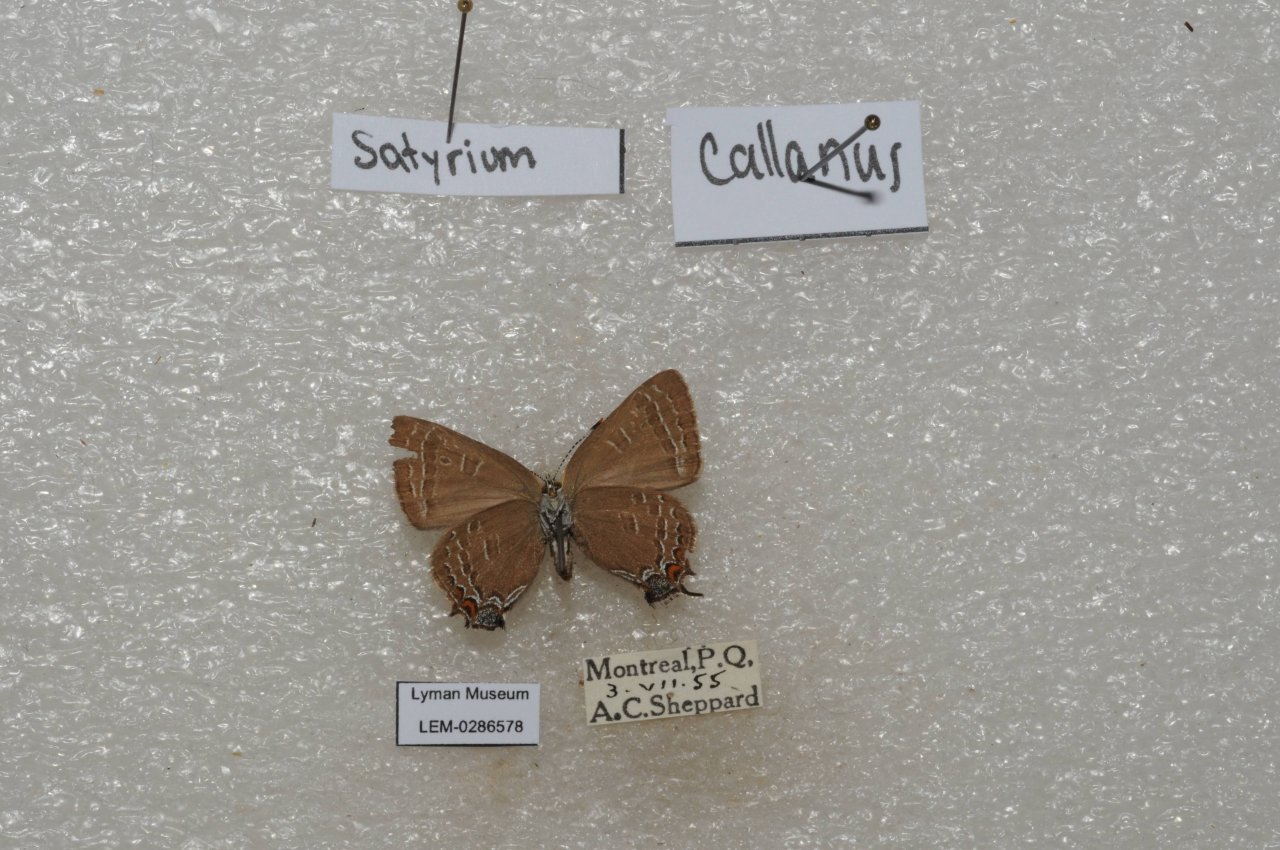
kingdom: Animalia
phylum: Arthropoda
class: Insecta
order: Lepidoptera
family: Lycaenidae
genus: Satyrium
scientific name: Satyrium calanus
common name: Banded Hairstreak
